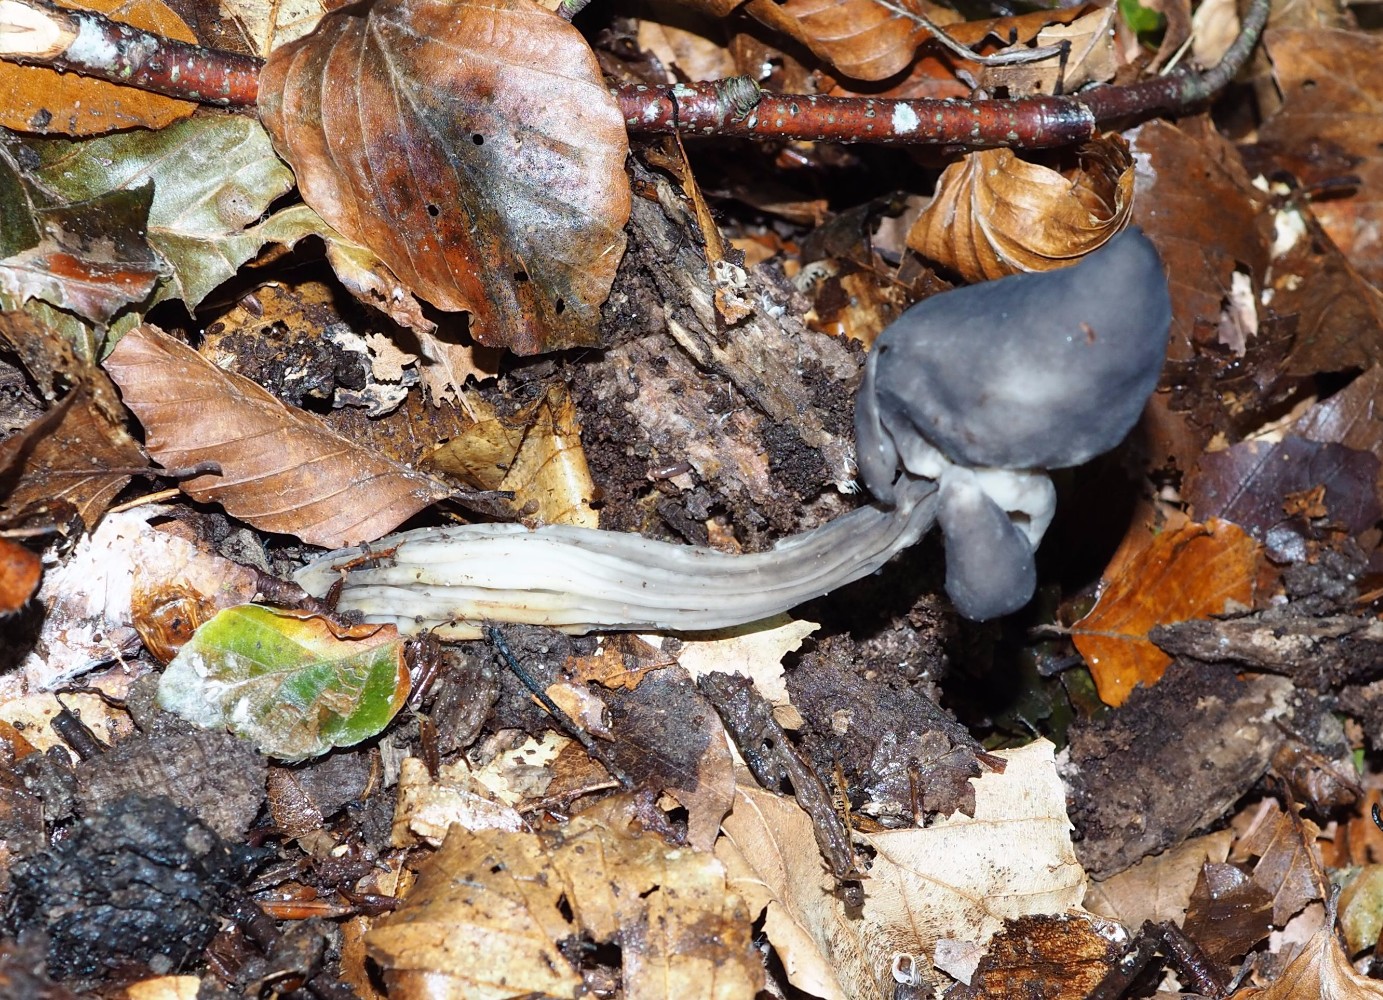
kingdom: Fungi
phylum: Ascomycota
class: Pezizomycetes
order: Pezizales
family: Helvellaceae
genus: Helvella
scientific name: Helvella lacunosa
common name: grubet foldhat
